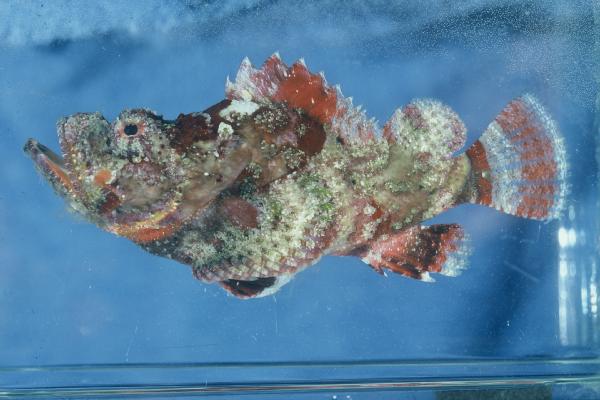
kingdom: Animalia
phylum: Chordata
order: Scorpaeniformes
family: Scorpaenidae
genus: Scorpaenopsis
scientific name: Scorpaenopsis diabolus
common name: False stonefish
